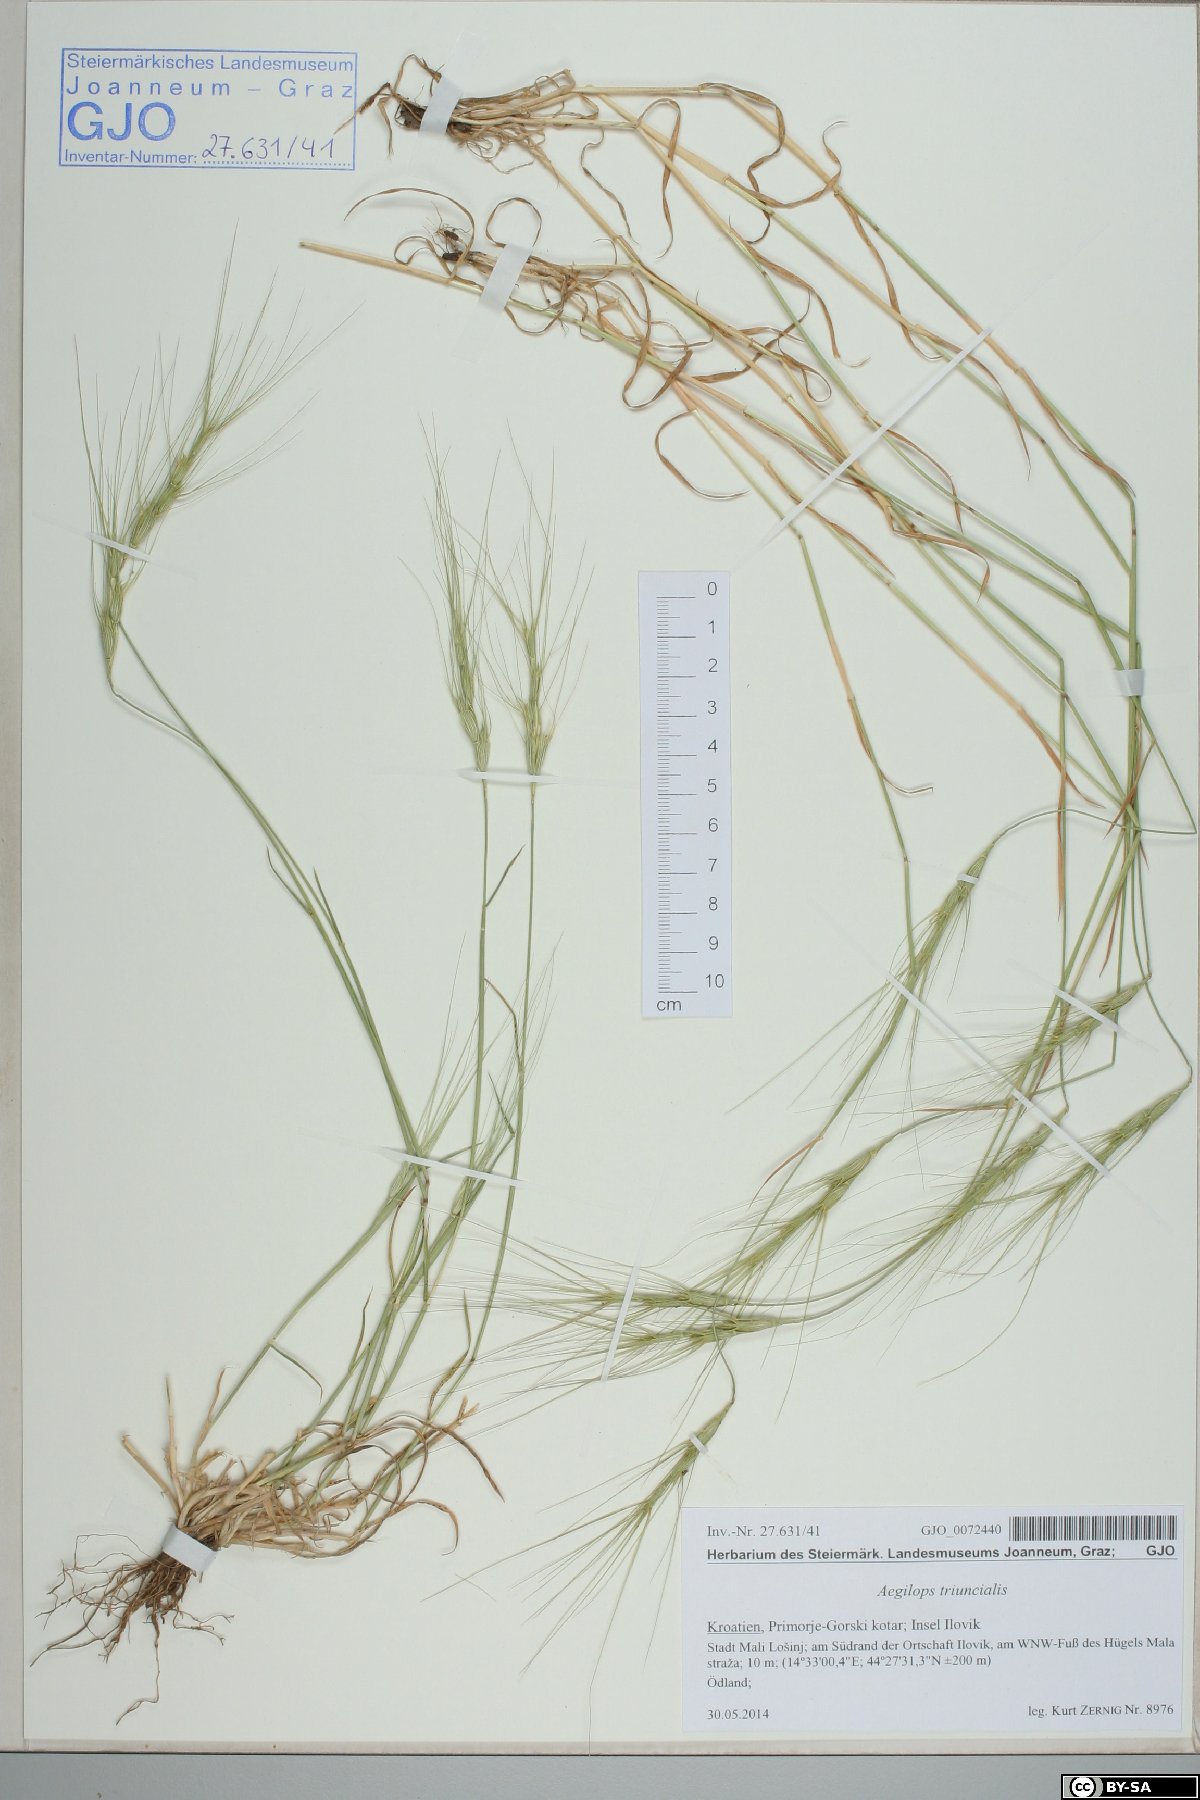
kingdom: Plantae
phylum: Tracheophyta
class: Liliopsida
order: Poales
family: Poaceae
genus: Aegilops
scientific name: Aegilops triuncialis
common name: Barb goat grass
